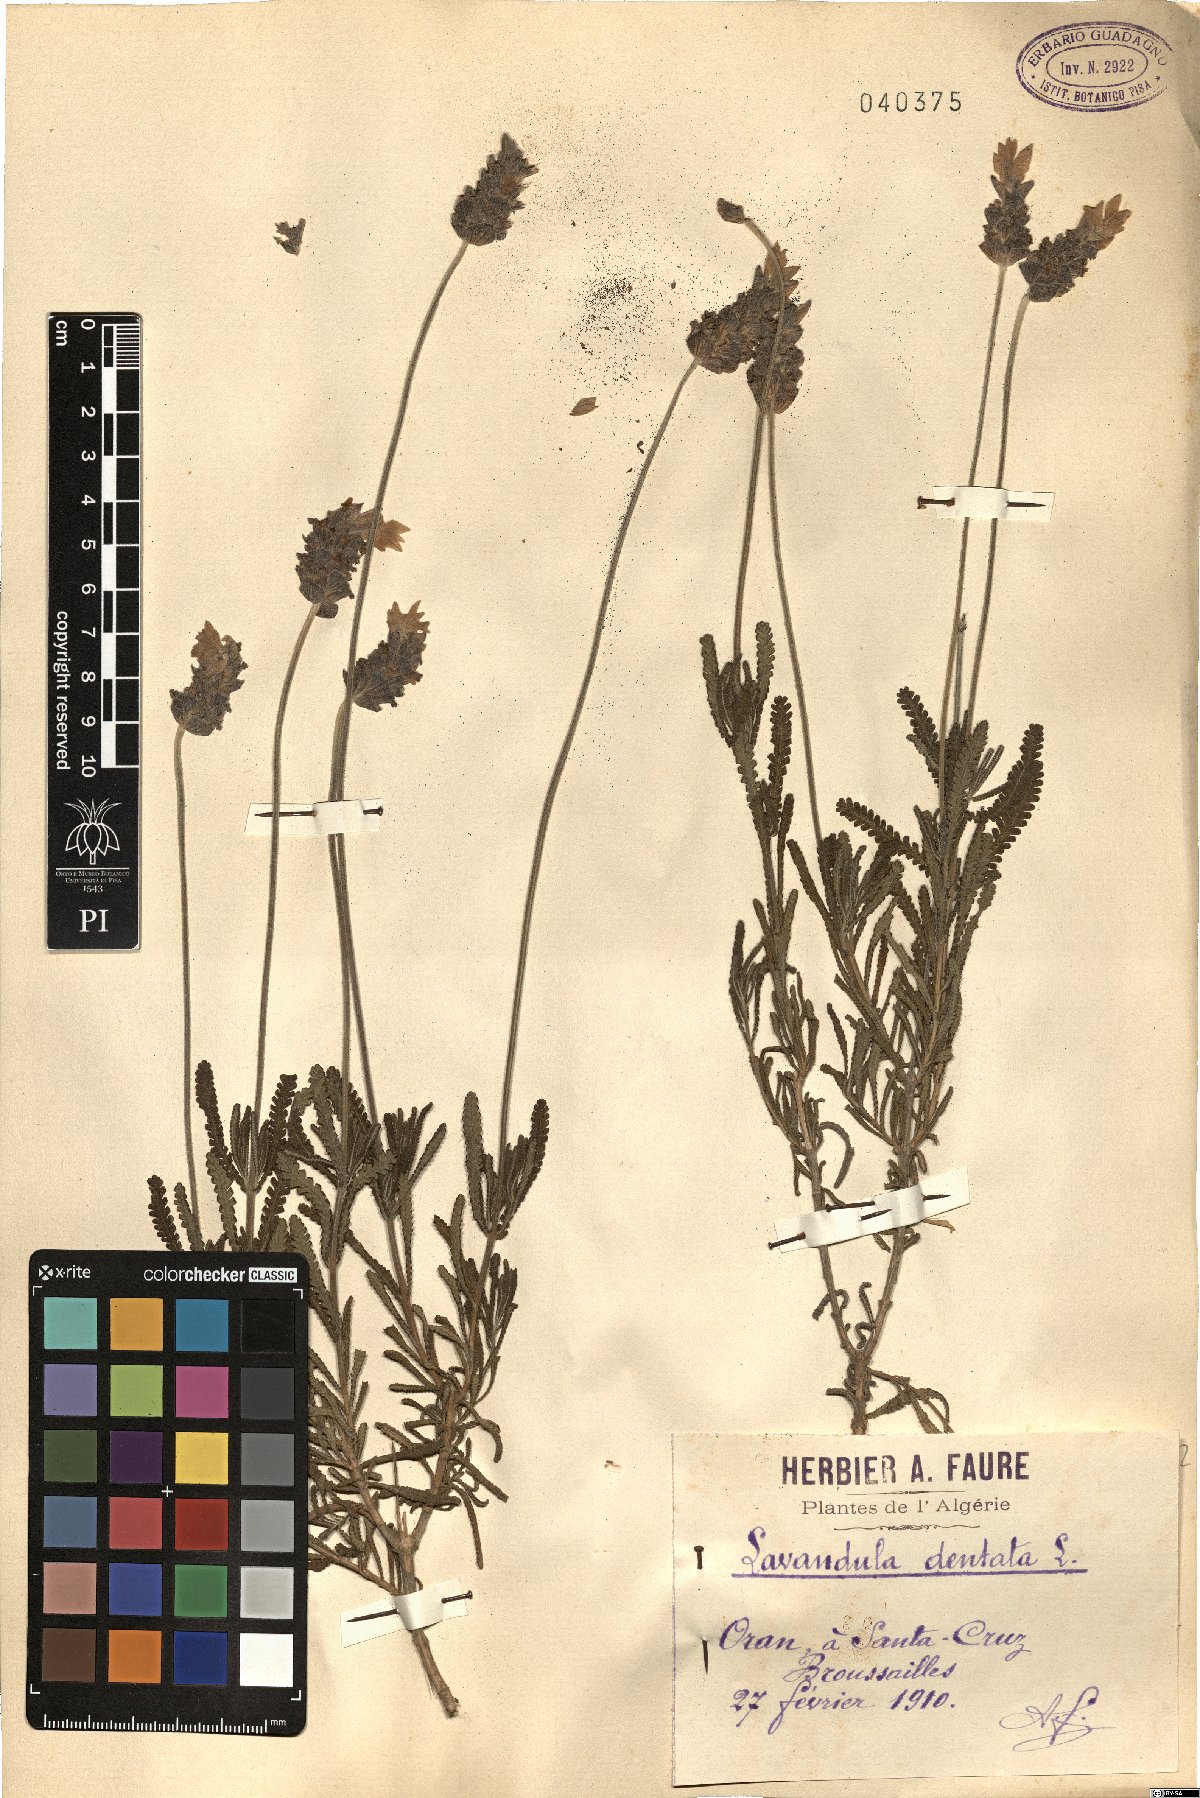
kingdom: Plantae
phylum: Tracheophyta
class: Magnoliopsida
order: Lamiales
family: Lamiaceae
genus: Lavandula
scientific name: Lavandula dentata
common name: French lavender
